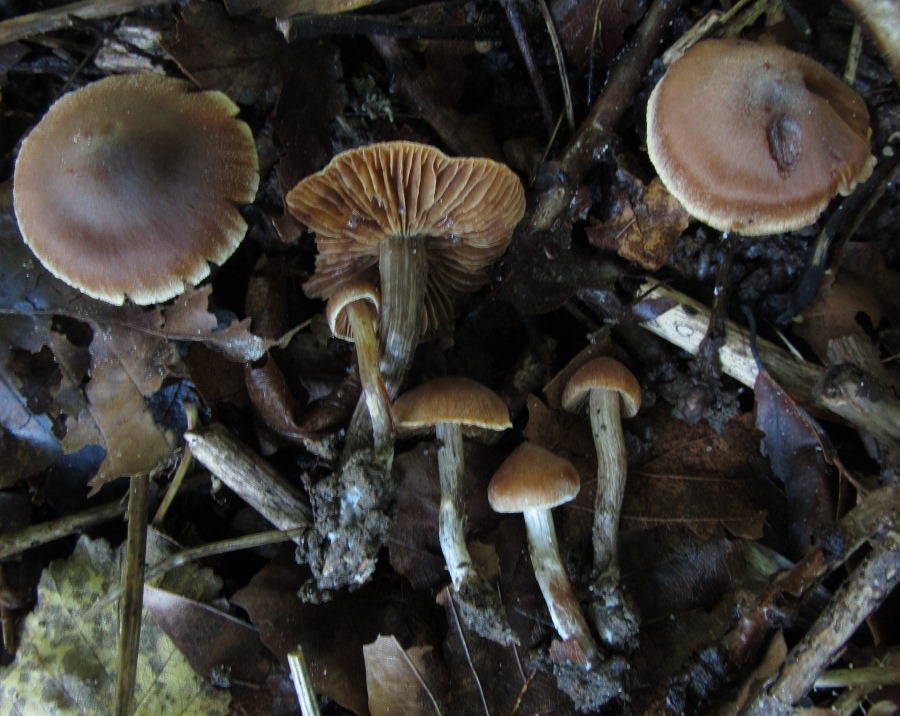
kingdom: Fungi
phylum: Basidiomycota
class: Agaricomycetes
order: Agaricales
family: Cortinariaceae
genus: Cortinarius
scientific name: Cortinarius decipiens
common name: mørkpuklet slørhat
